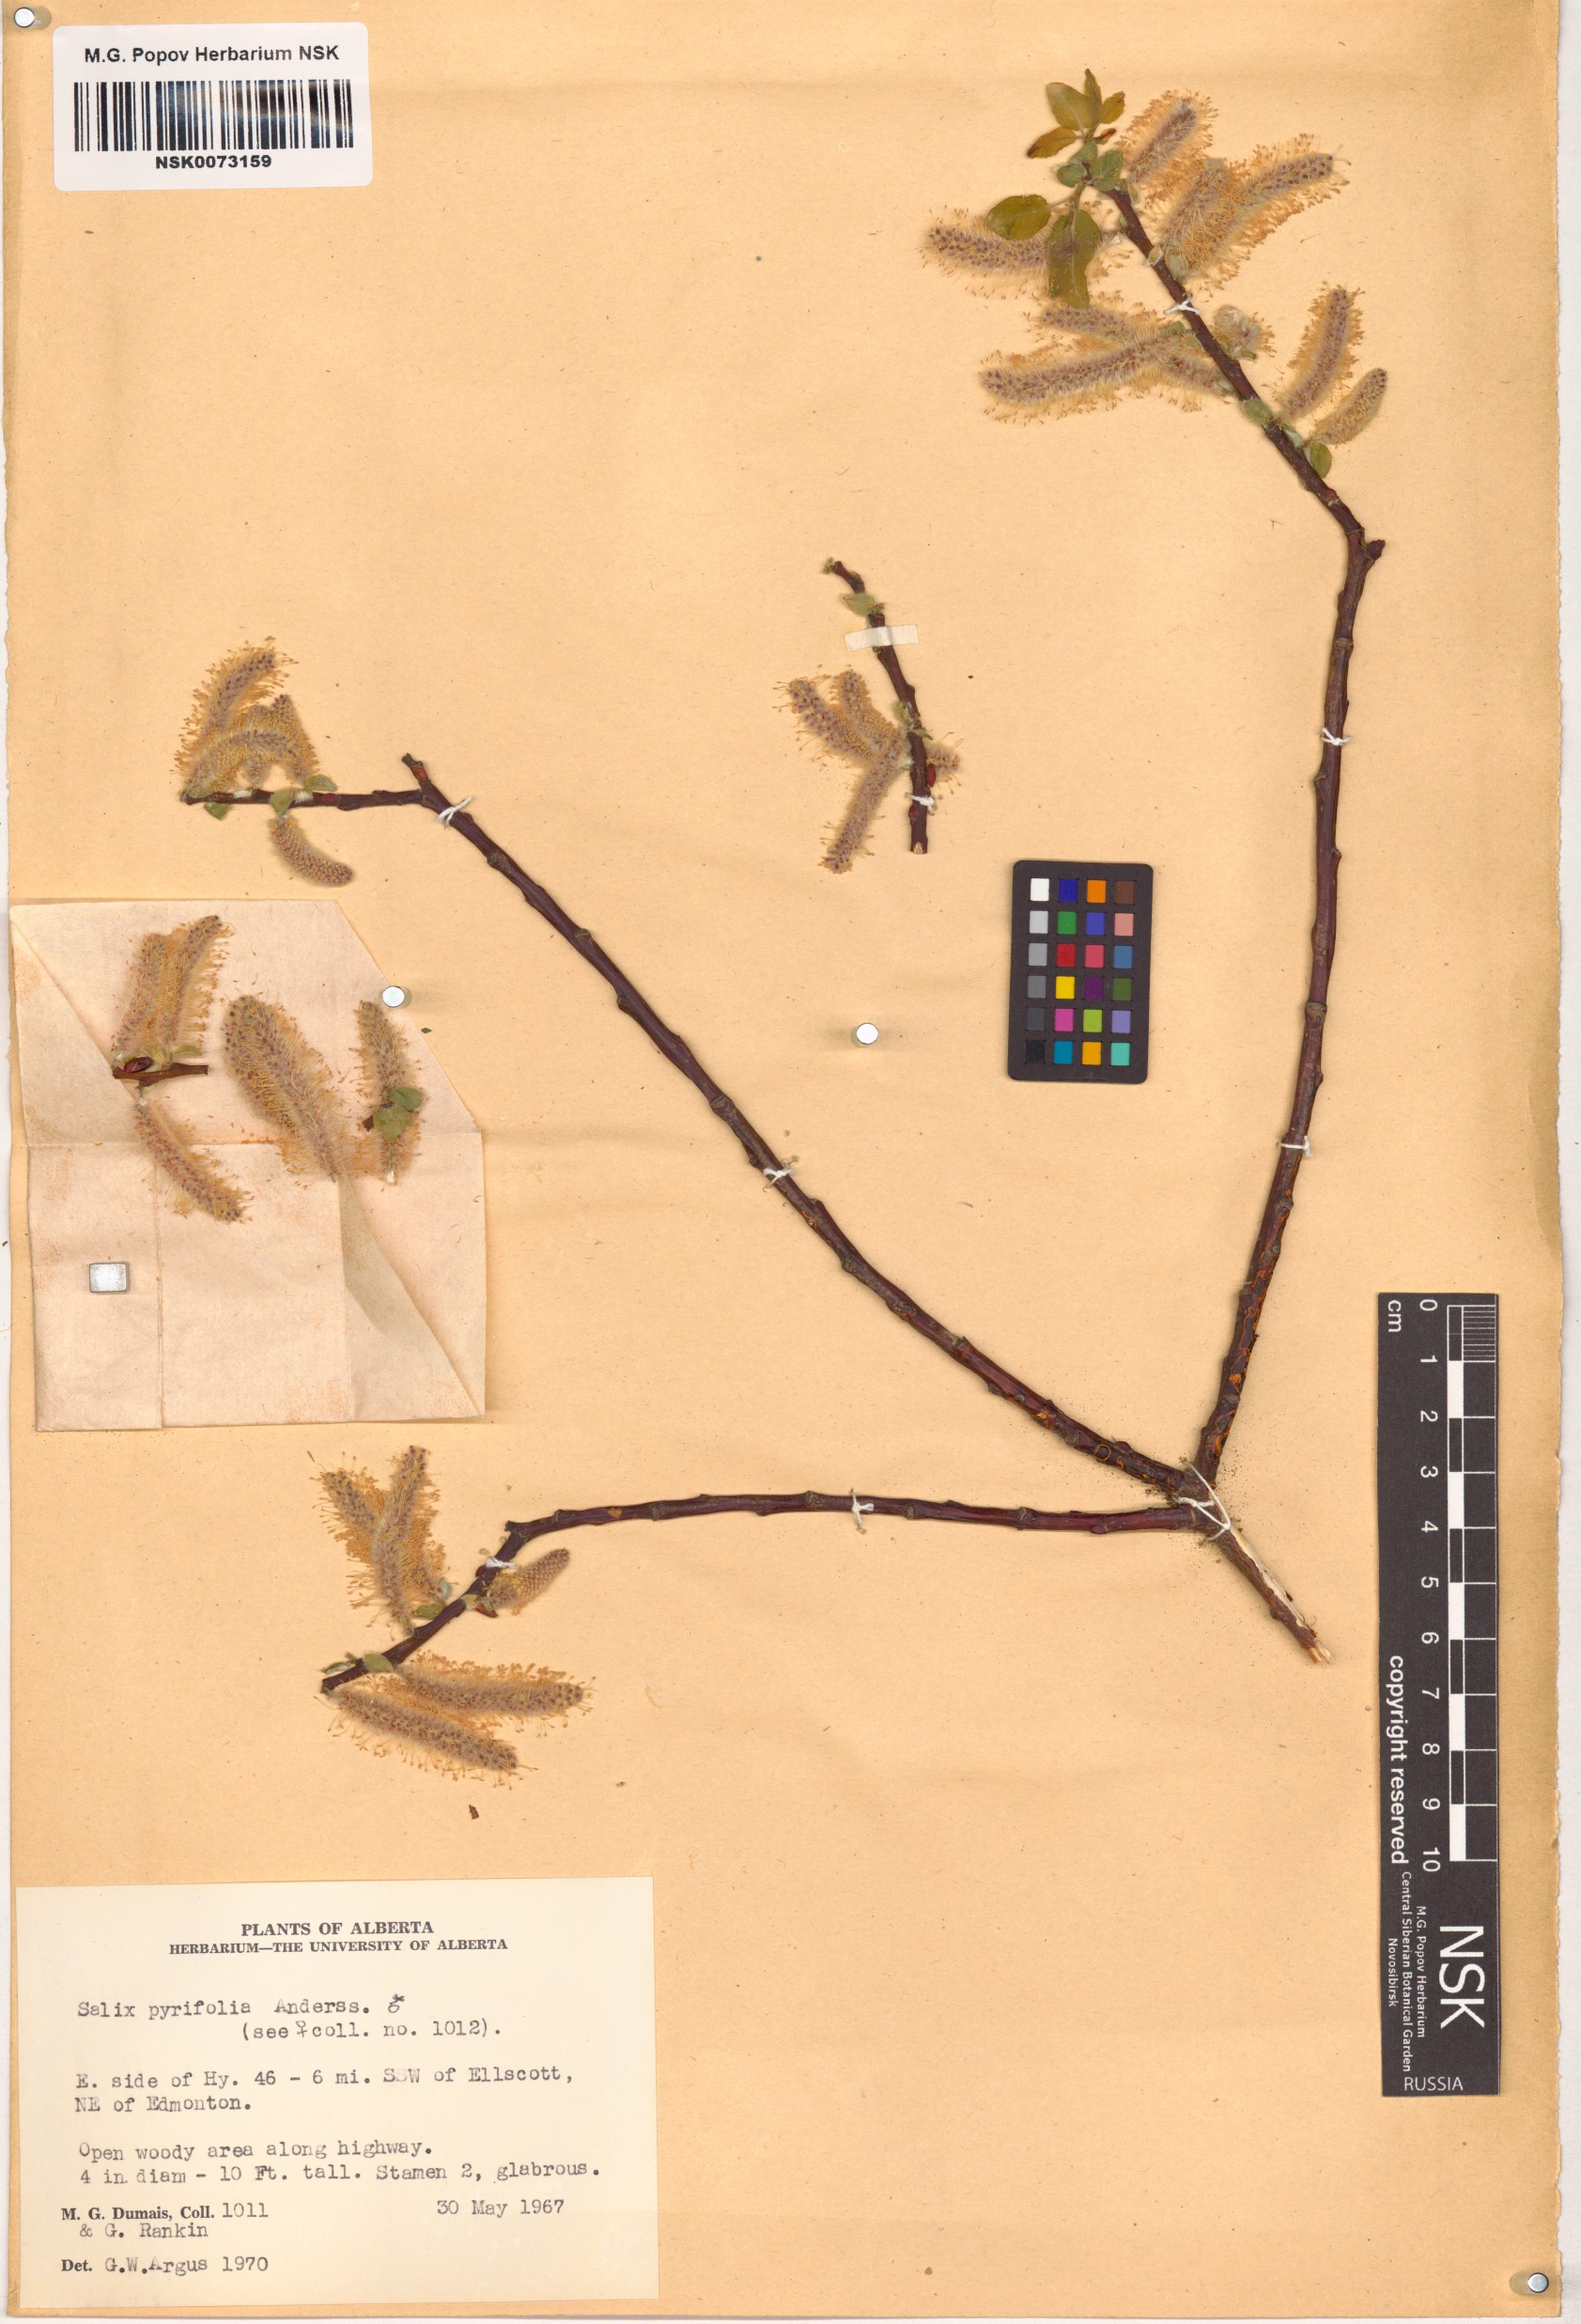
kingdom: Plantae
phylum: Tracheophyta
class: Magnoliopsida
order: Malpighiales
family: Salicaceae
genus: Salix
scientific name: Salix pyrifolia
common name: Balsam willow
